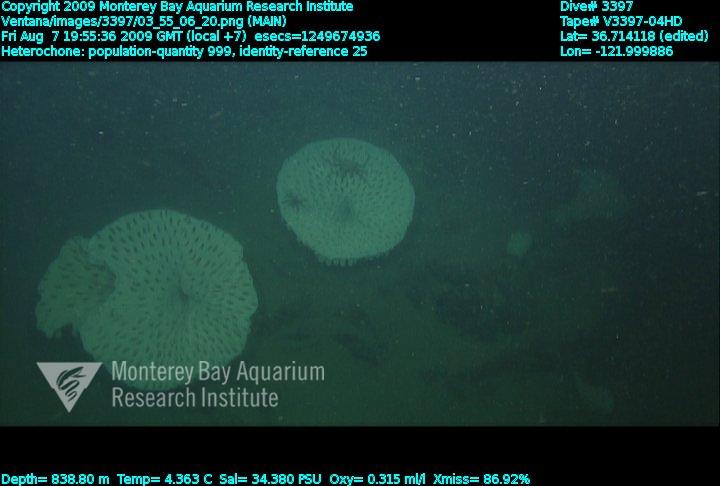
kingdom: Animalia
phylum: Porifera
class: Hexactinellida
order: Sceptrulophora
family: Aphrocallistidae
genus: Heterochone
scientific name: Heterochone
